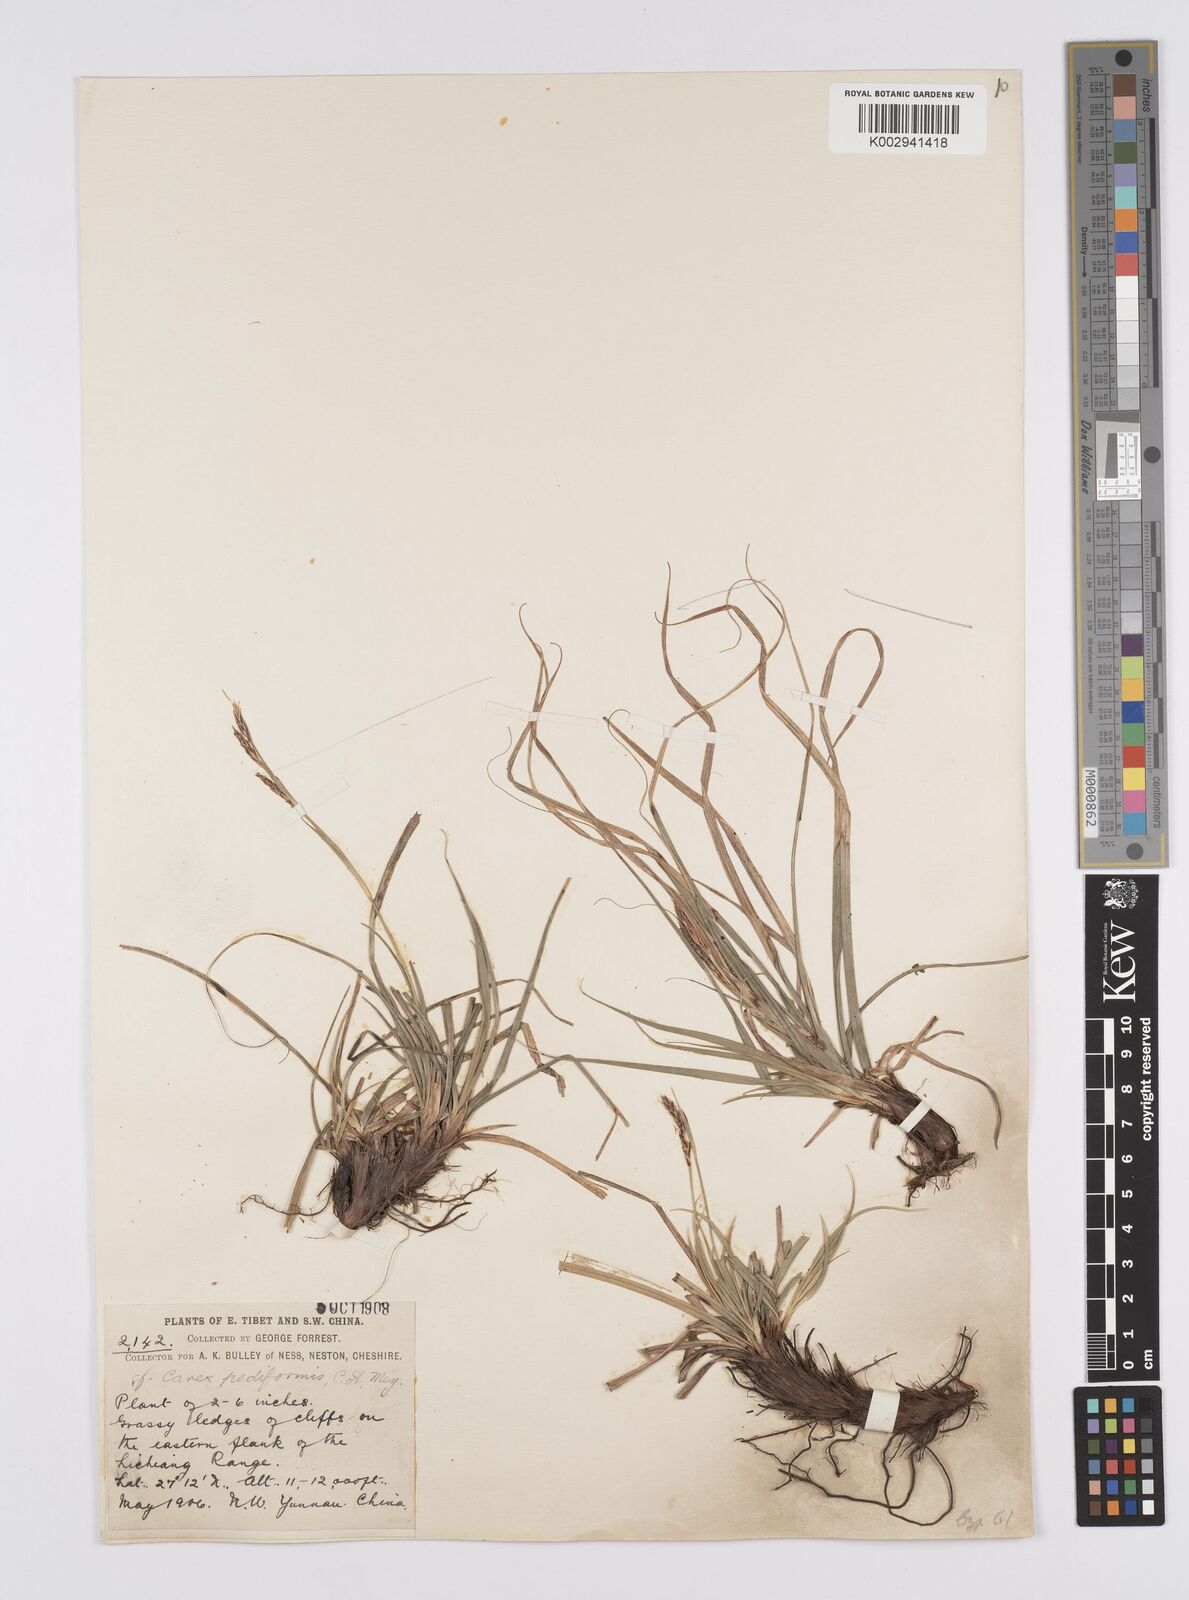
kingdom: Plantae
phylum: Tracheophyta
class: Liliopsida
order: Poales
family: Cyperaceae
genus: Carex
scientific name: Carex pediformis
